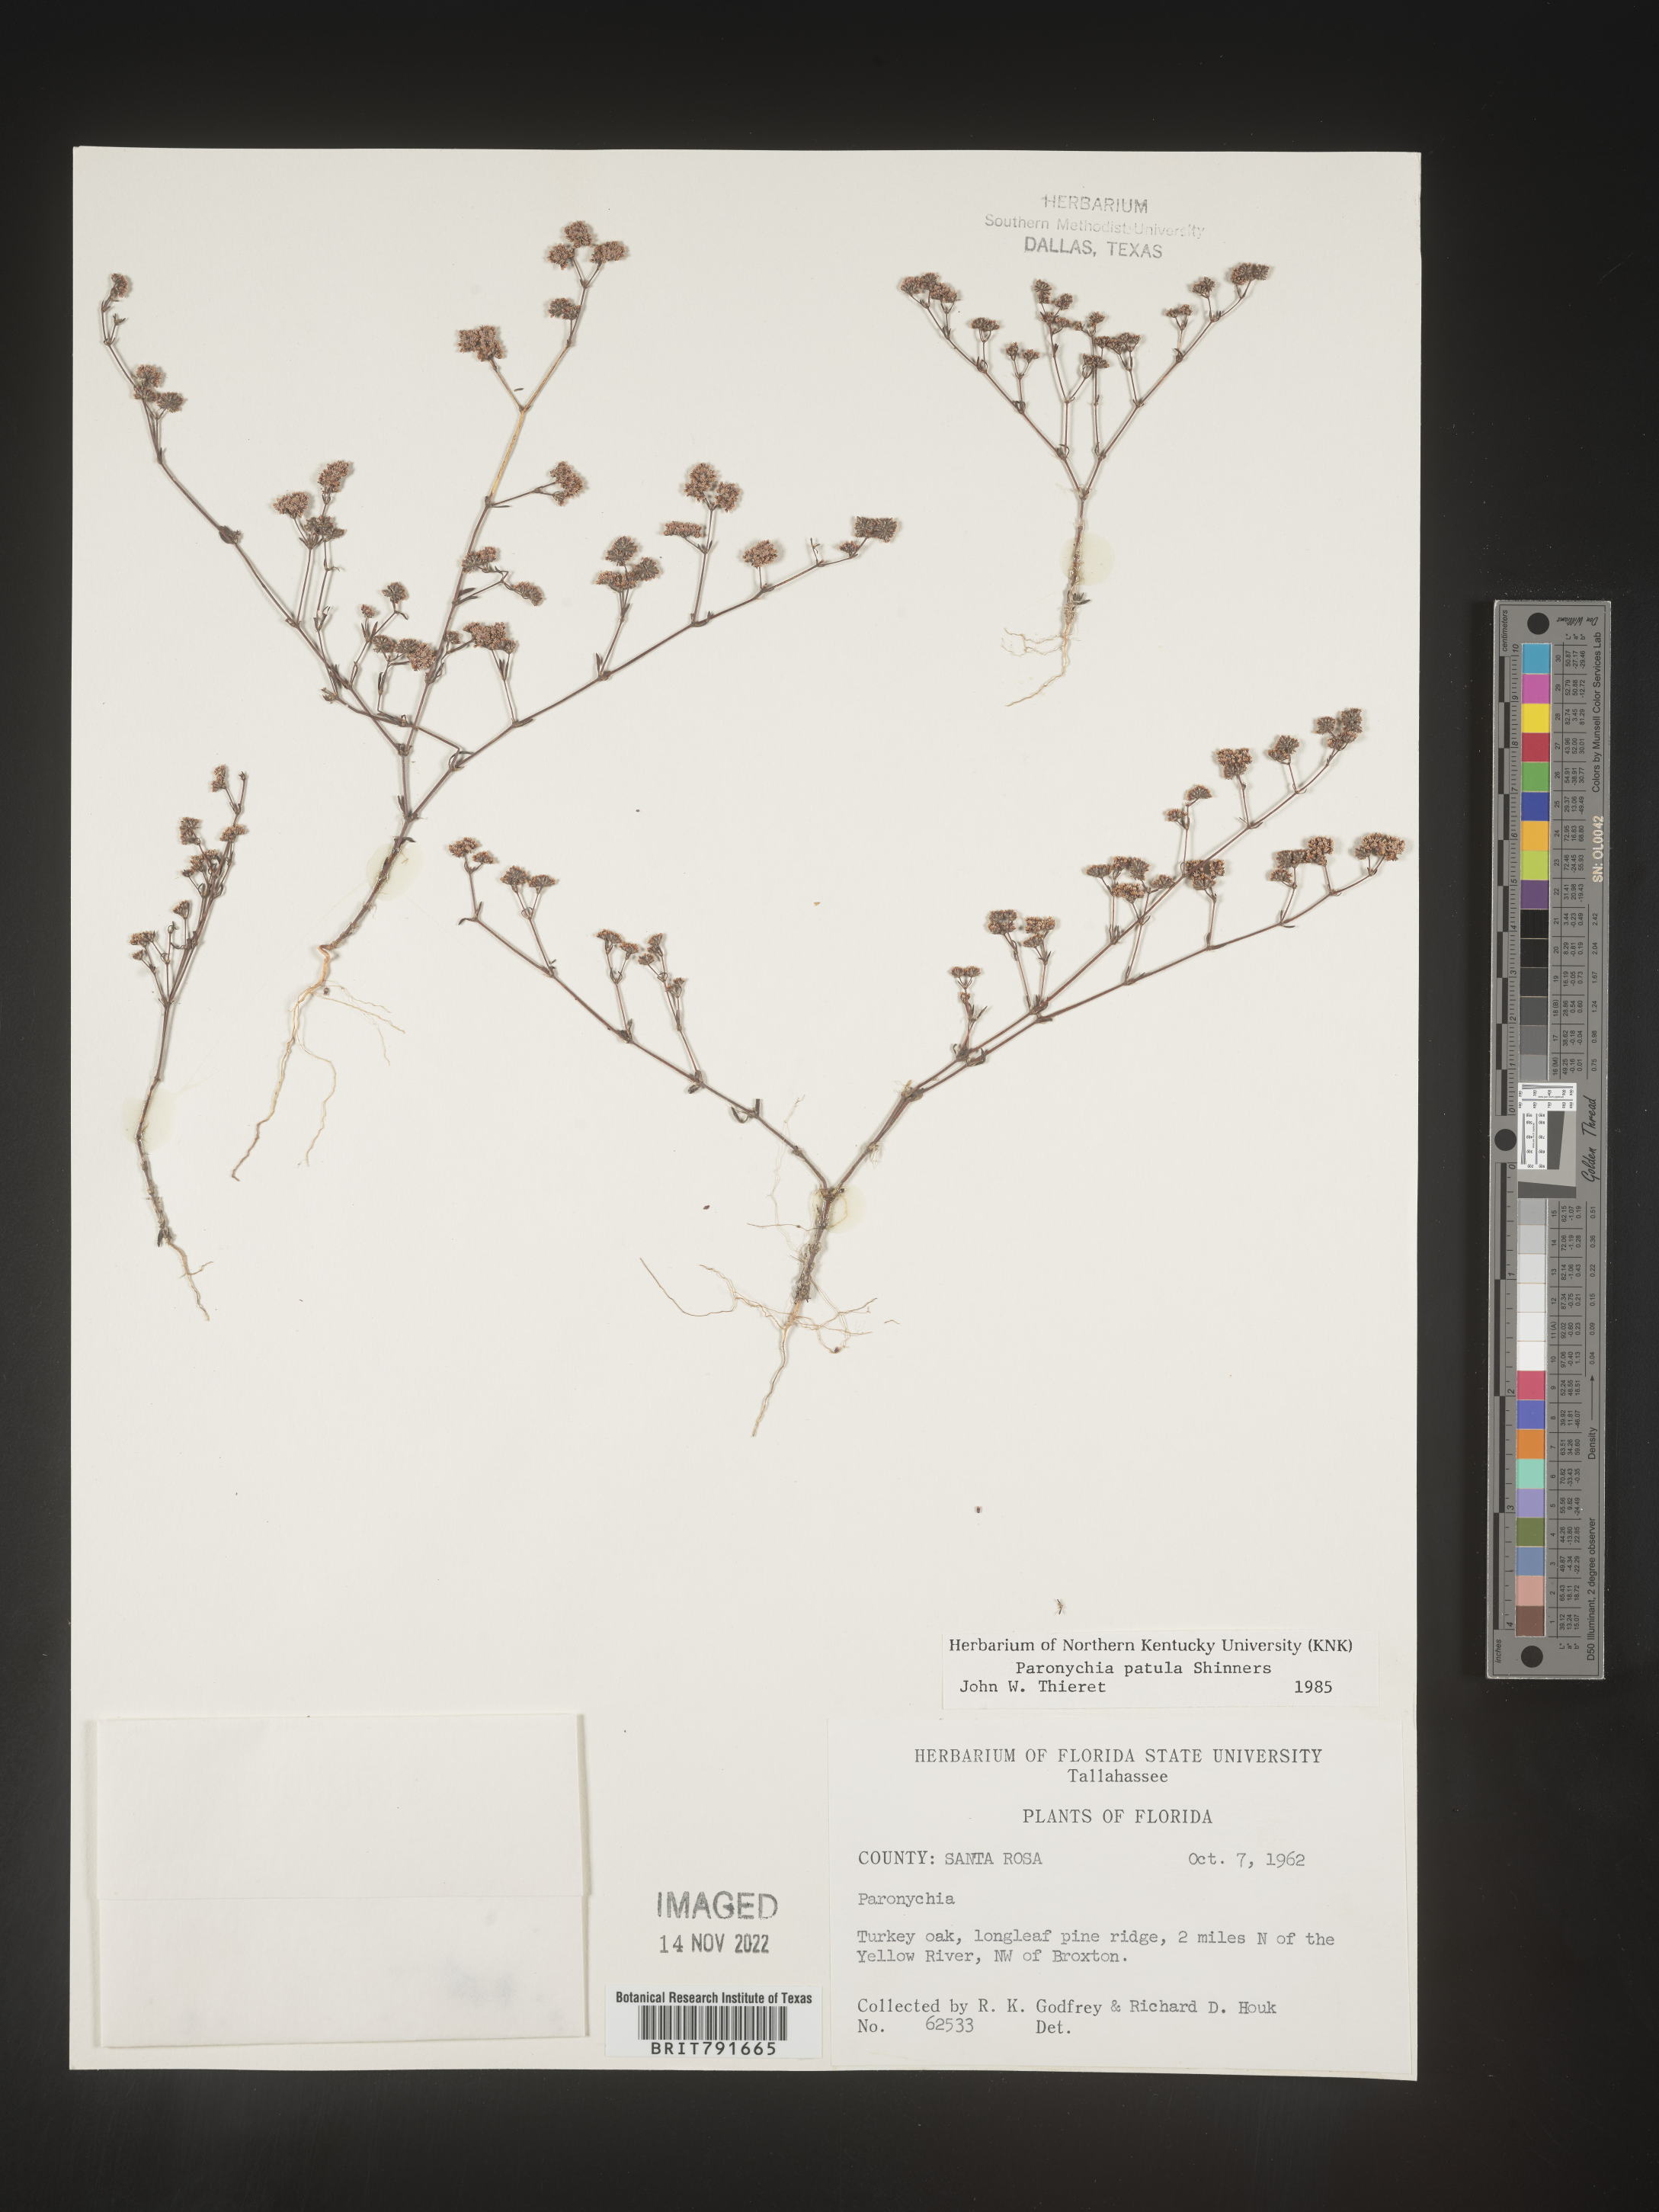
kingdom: Plantae
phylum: Tracheophyta
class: Magnoliopsida
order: Caryophyllales
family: Caryophyllaceae
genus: Paronychia
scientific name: Paronychia patula
